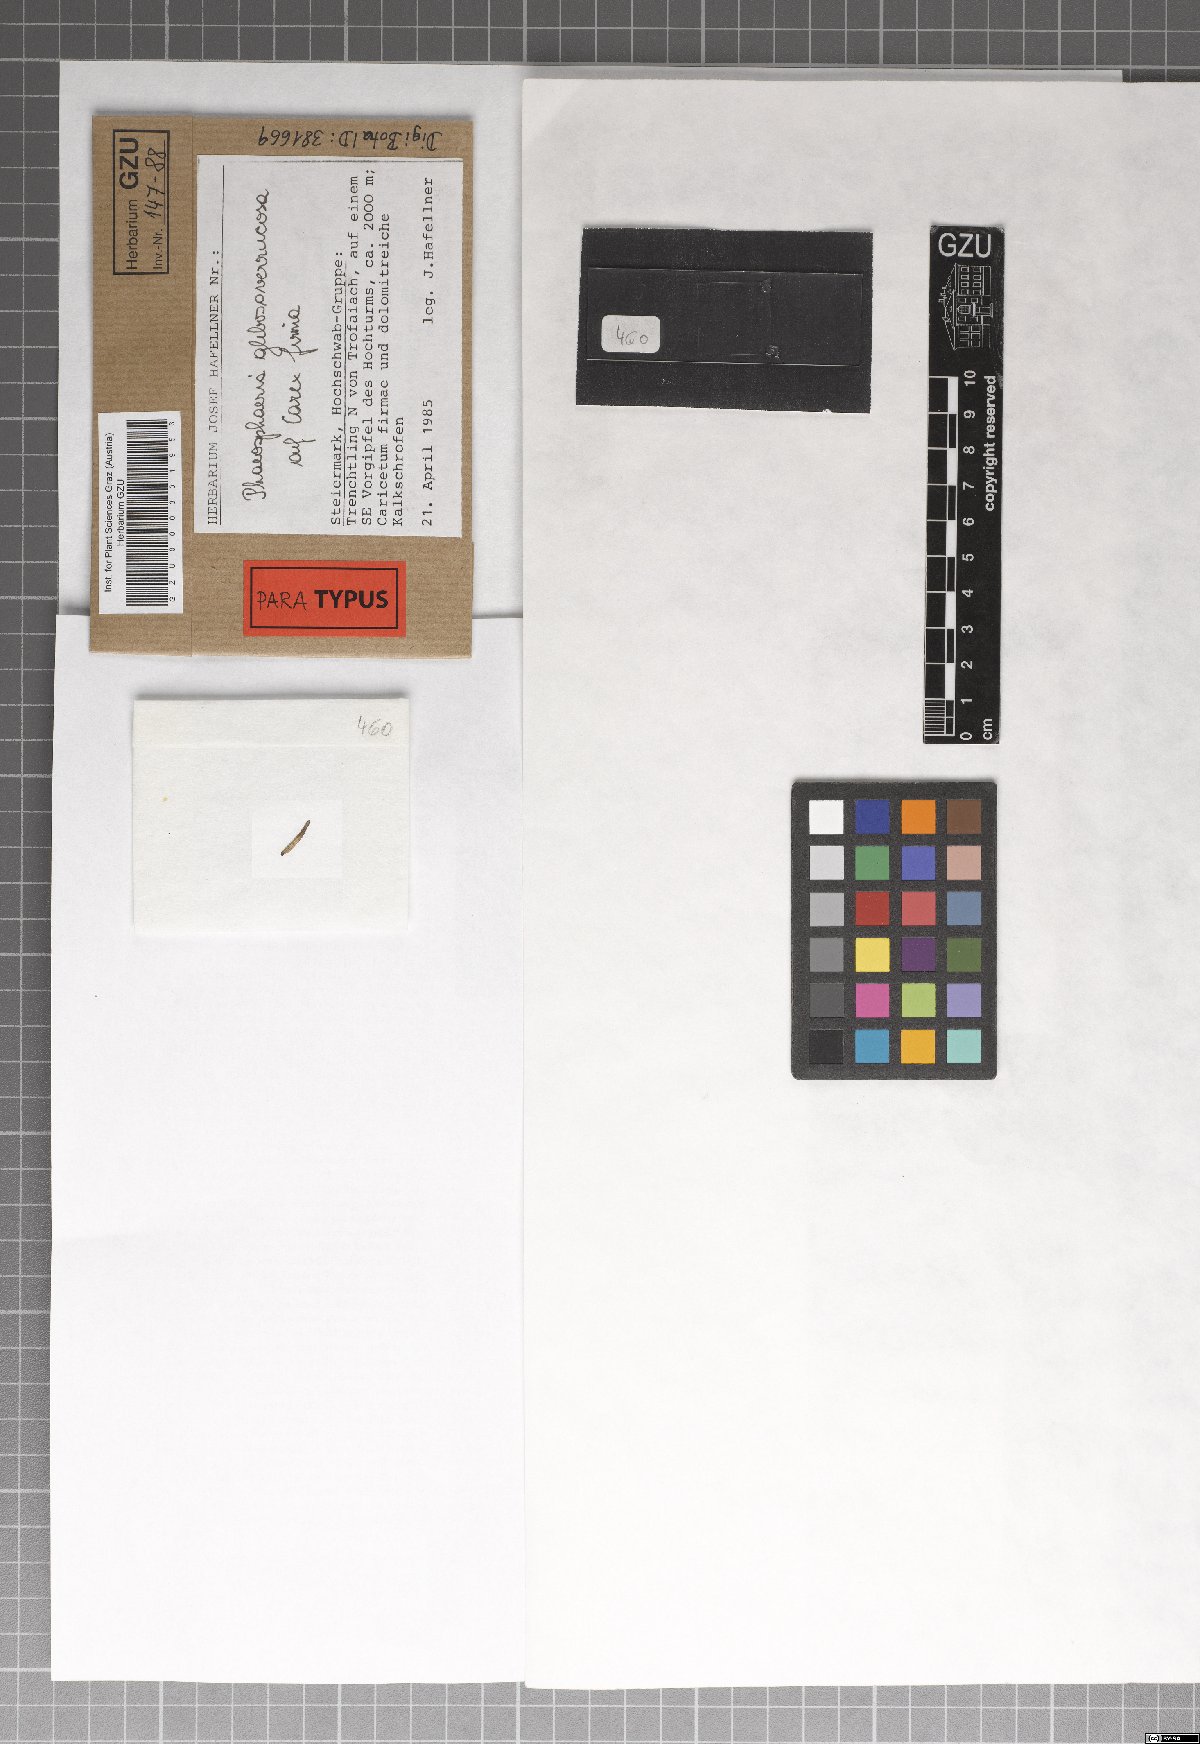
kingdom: Fungi
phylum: Ascomycota
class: Dothideomycetes
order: Pleosporales
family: Phaeosphaeriaceae
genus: Phaeosphaeria
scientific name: Phaeosphaeria glebosoverrucosa
